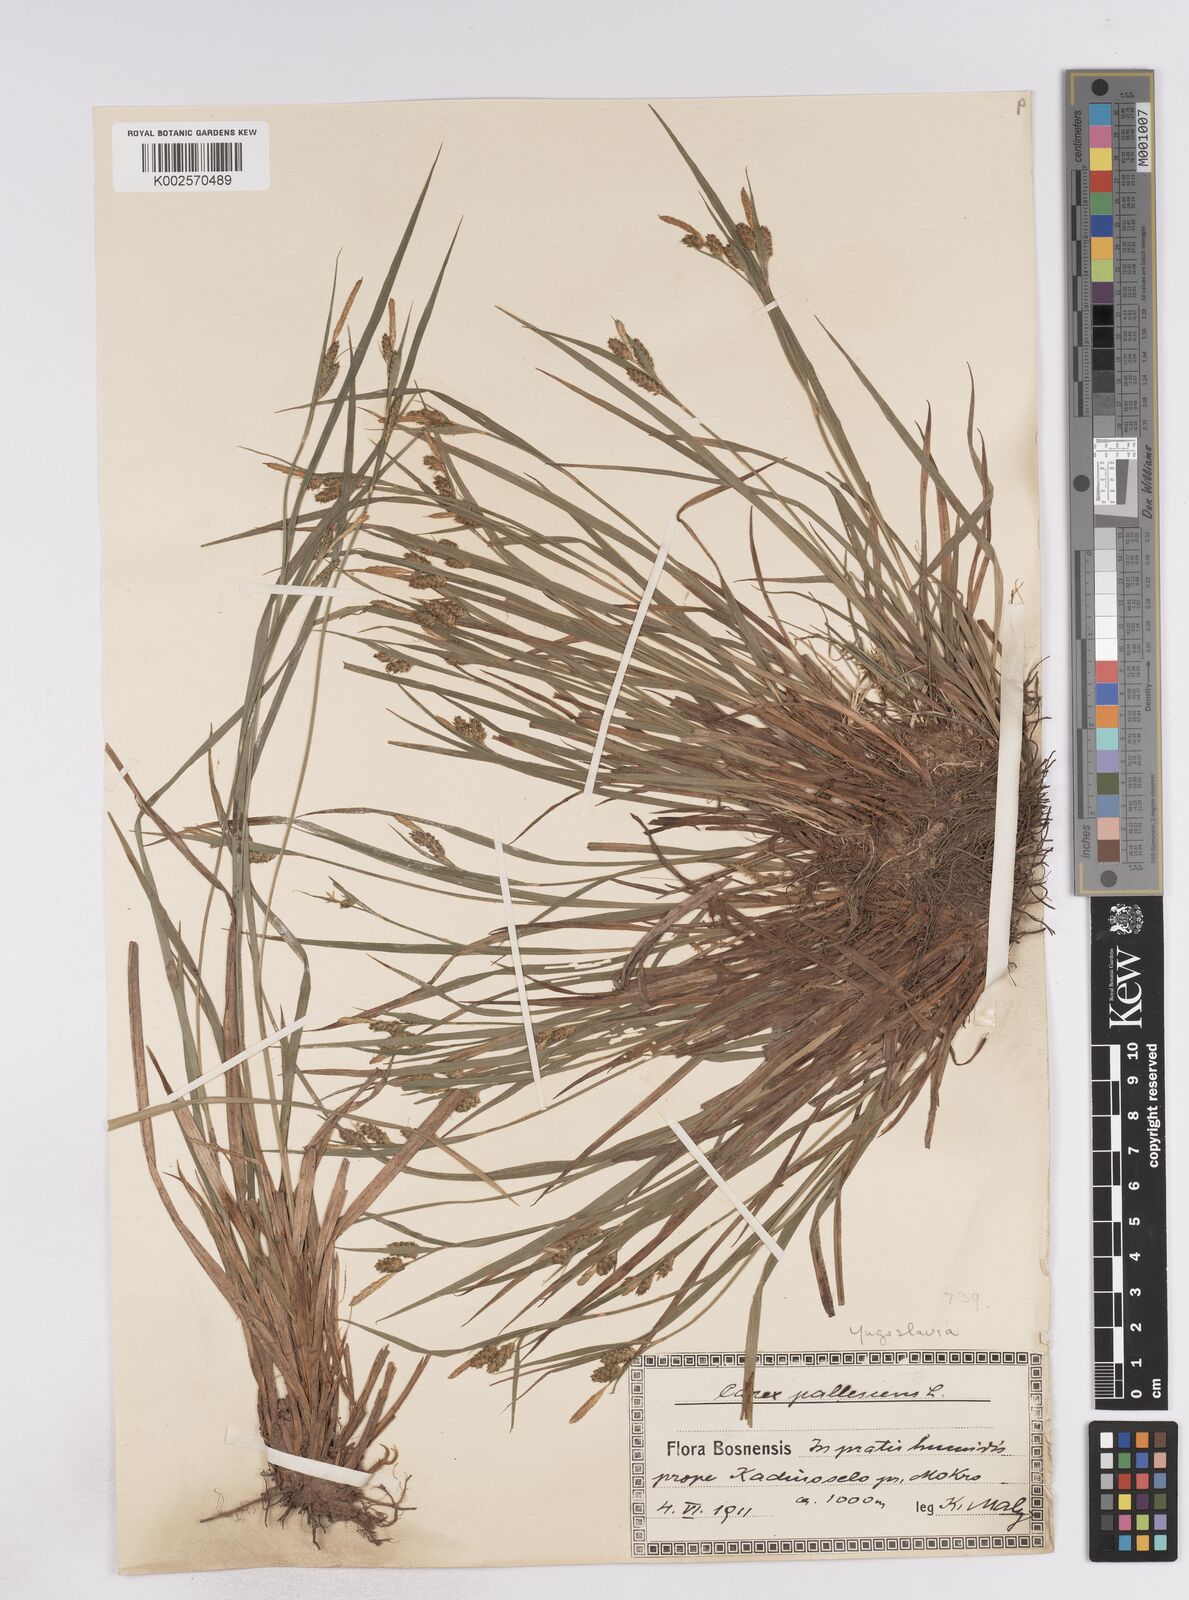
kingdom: Plantae
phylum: Tracheophyta
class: Liliopsida
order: Poales
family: Cyperaceae
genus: Carex
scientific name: Carex pallescens
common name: Pale sedge
